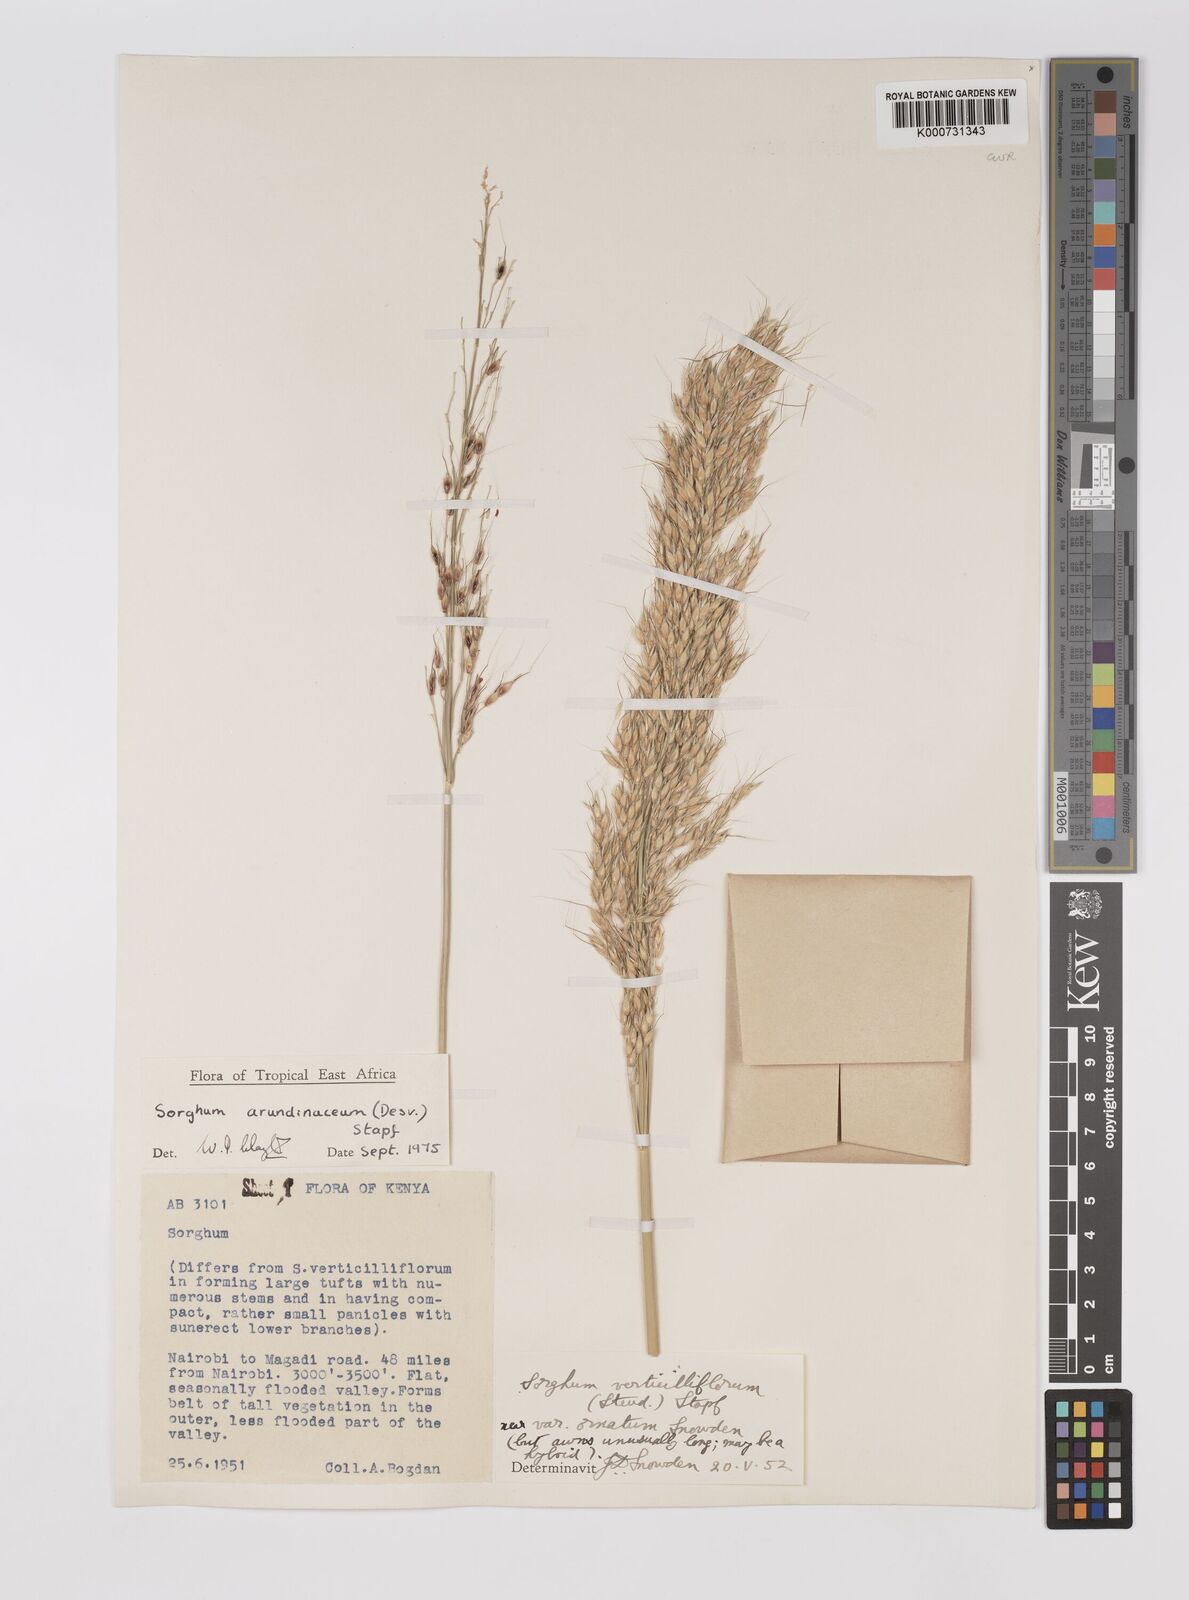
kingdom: Plantae
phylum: Tracheophyta
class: Liliopsida
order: Poales
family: Poaceae
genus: Sorghum
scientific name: Sorghum arundinaceum
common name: Sorghum
